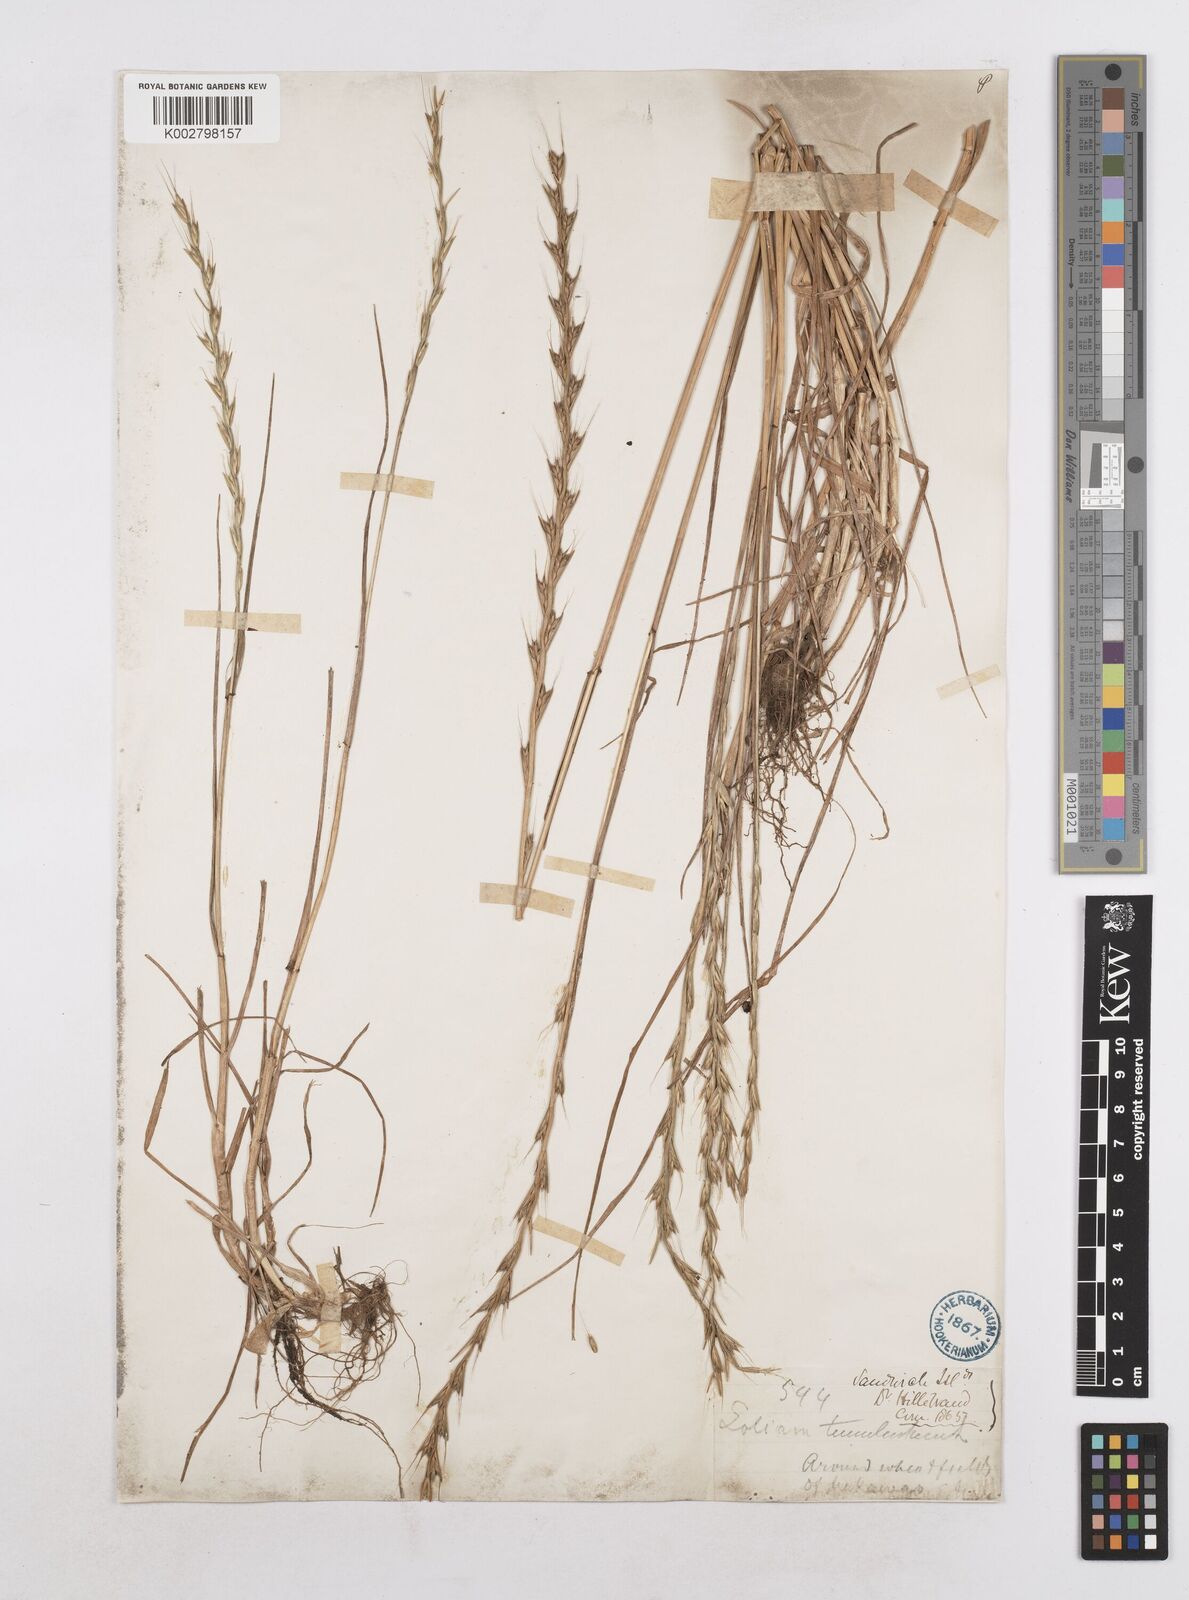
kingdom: Plantae
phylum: Tracheophyta
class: Liliopsida
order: Poales
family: Poaceae
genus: Lolium
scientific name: Lolium temulentum
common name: Darnel
